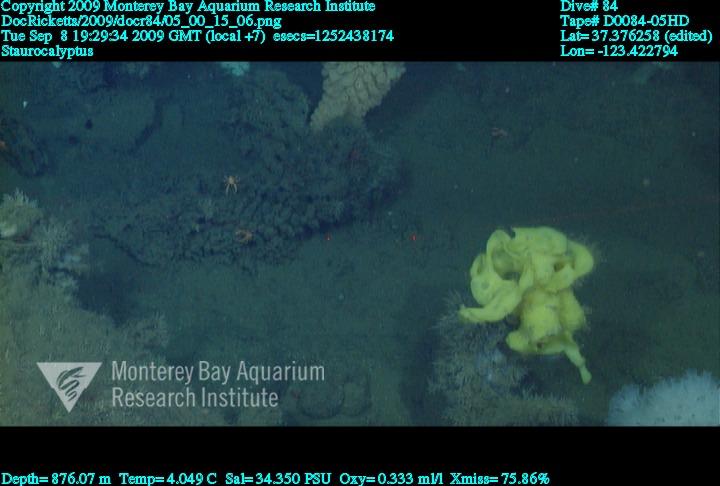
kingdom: Animalia
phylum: Porifera
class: Hexactinellida
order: Lyssacinosida
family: Rossellidae
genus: Staurocalyptus
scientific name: Staurocalyptus
